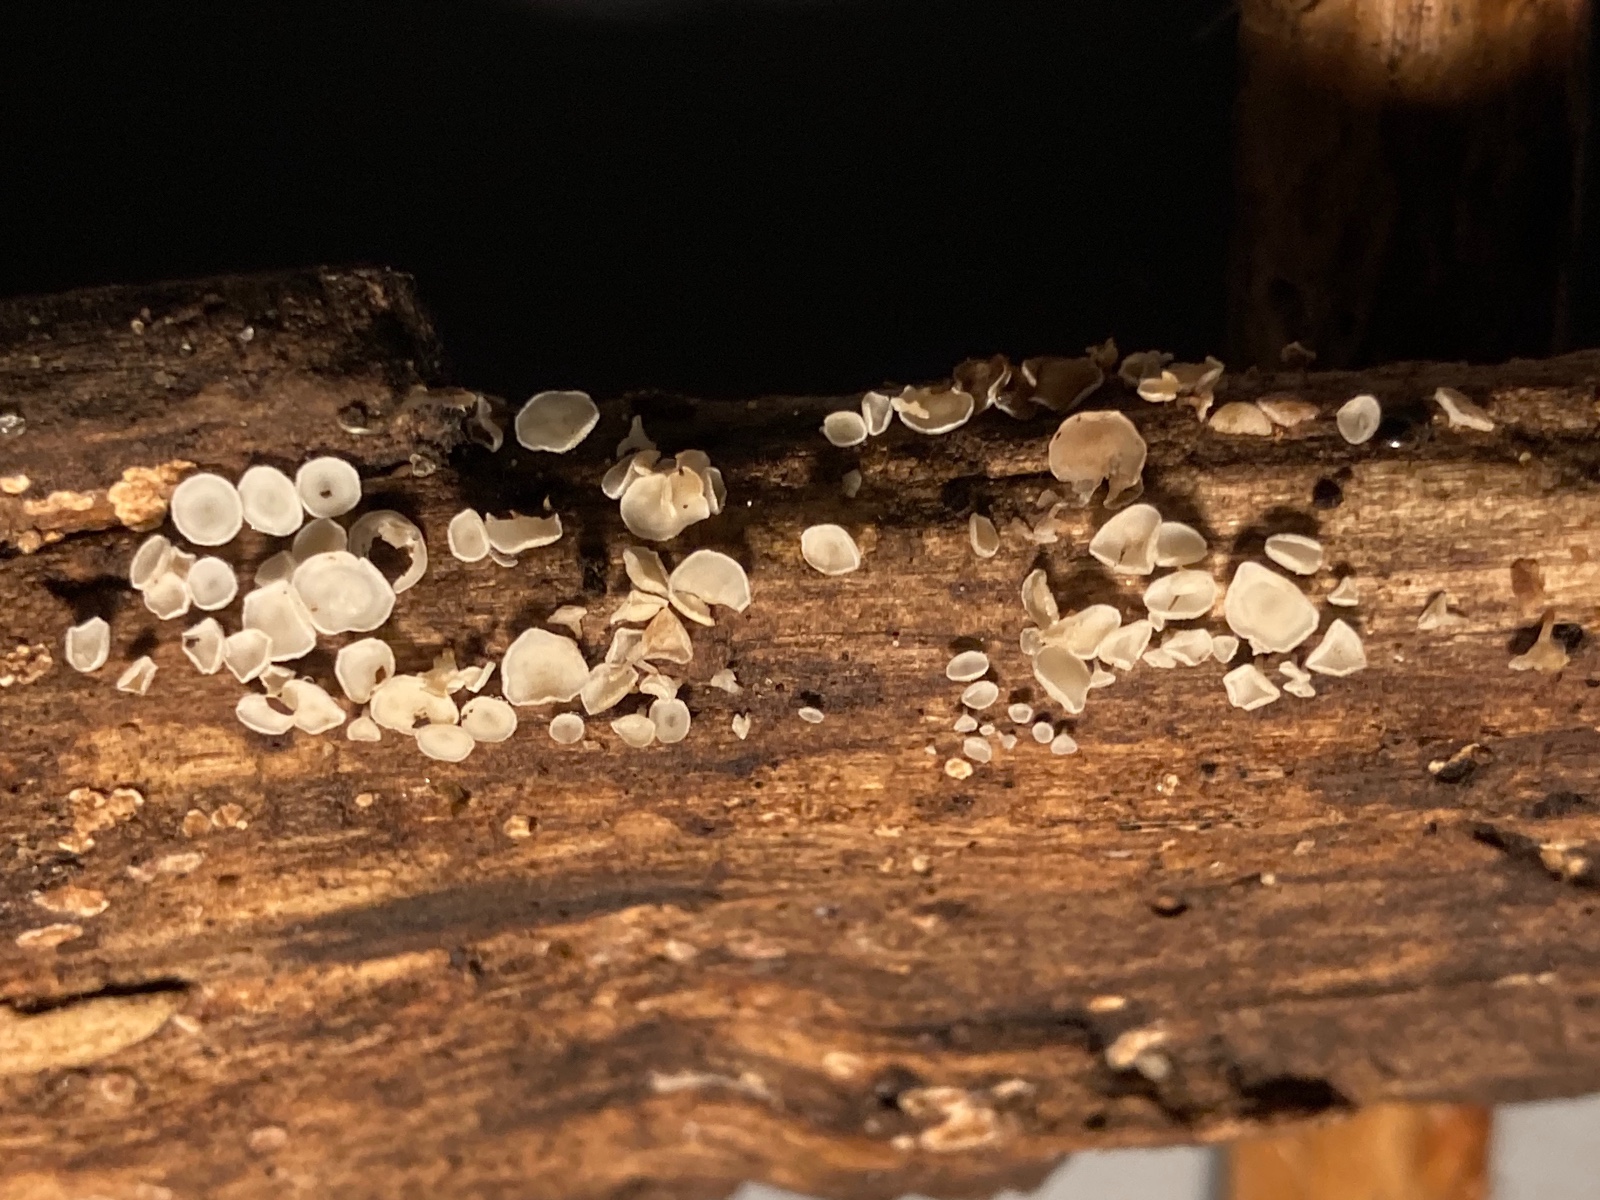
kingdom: Fungi
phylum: Ascomycota
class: Leotiomycetes
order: Helotiales
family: Lachnaceae
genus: Lachnum
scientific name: Lachnum brevipilosum
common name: korthåret frynseskive
